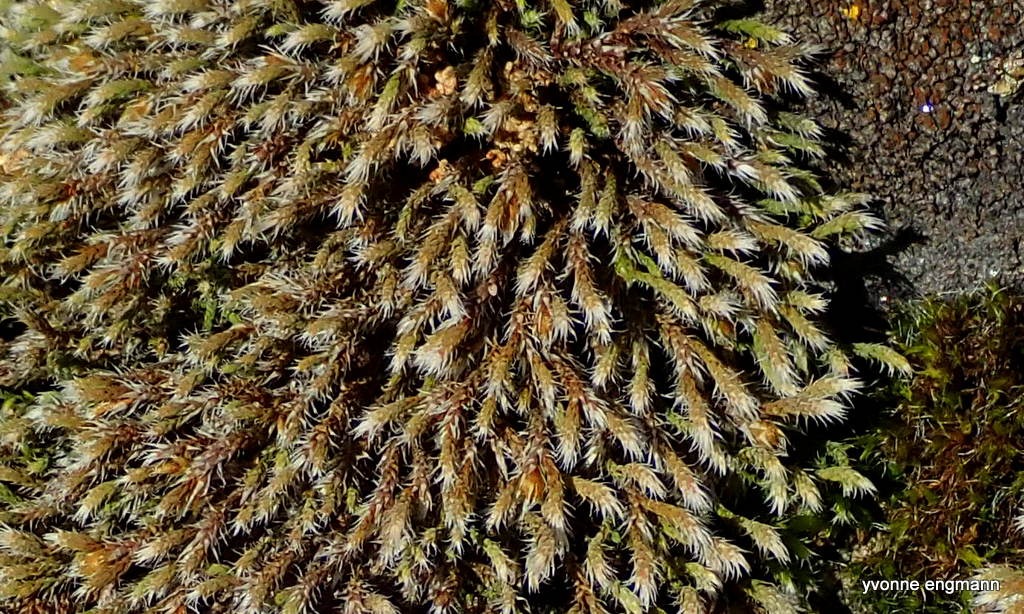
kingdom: Plantae
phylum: Bryophyta
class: Bryopsida
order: Hedwigiales
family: Hedwigiaceae
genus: Hedwigia
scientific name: Hedwigia ciliata
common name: Hvidspidset hedwigia
